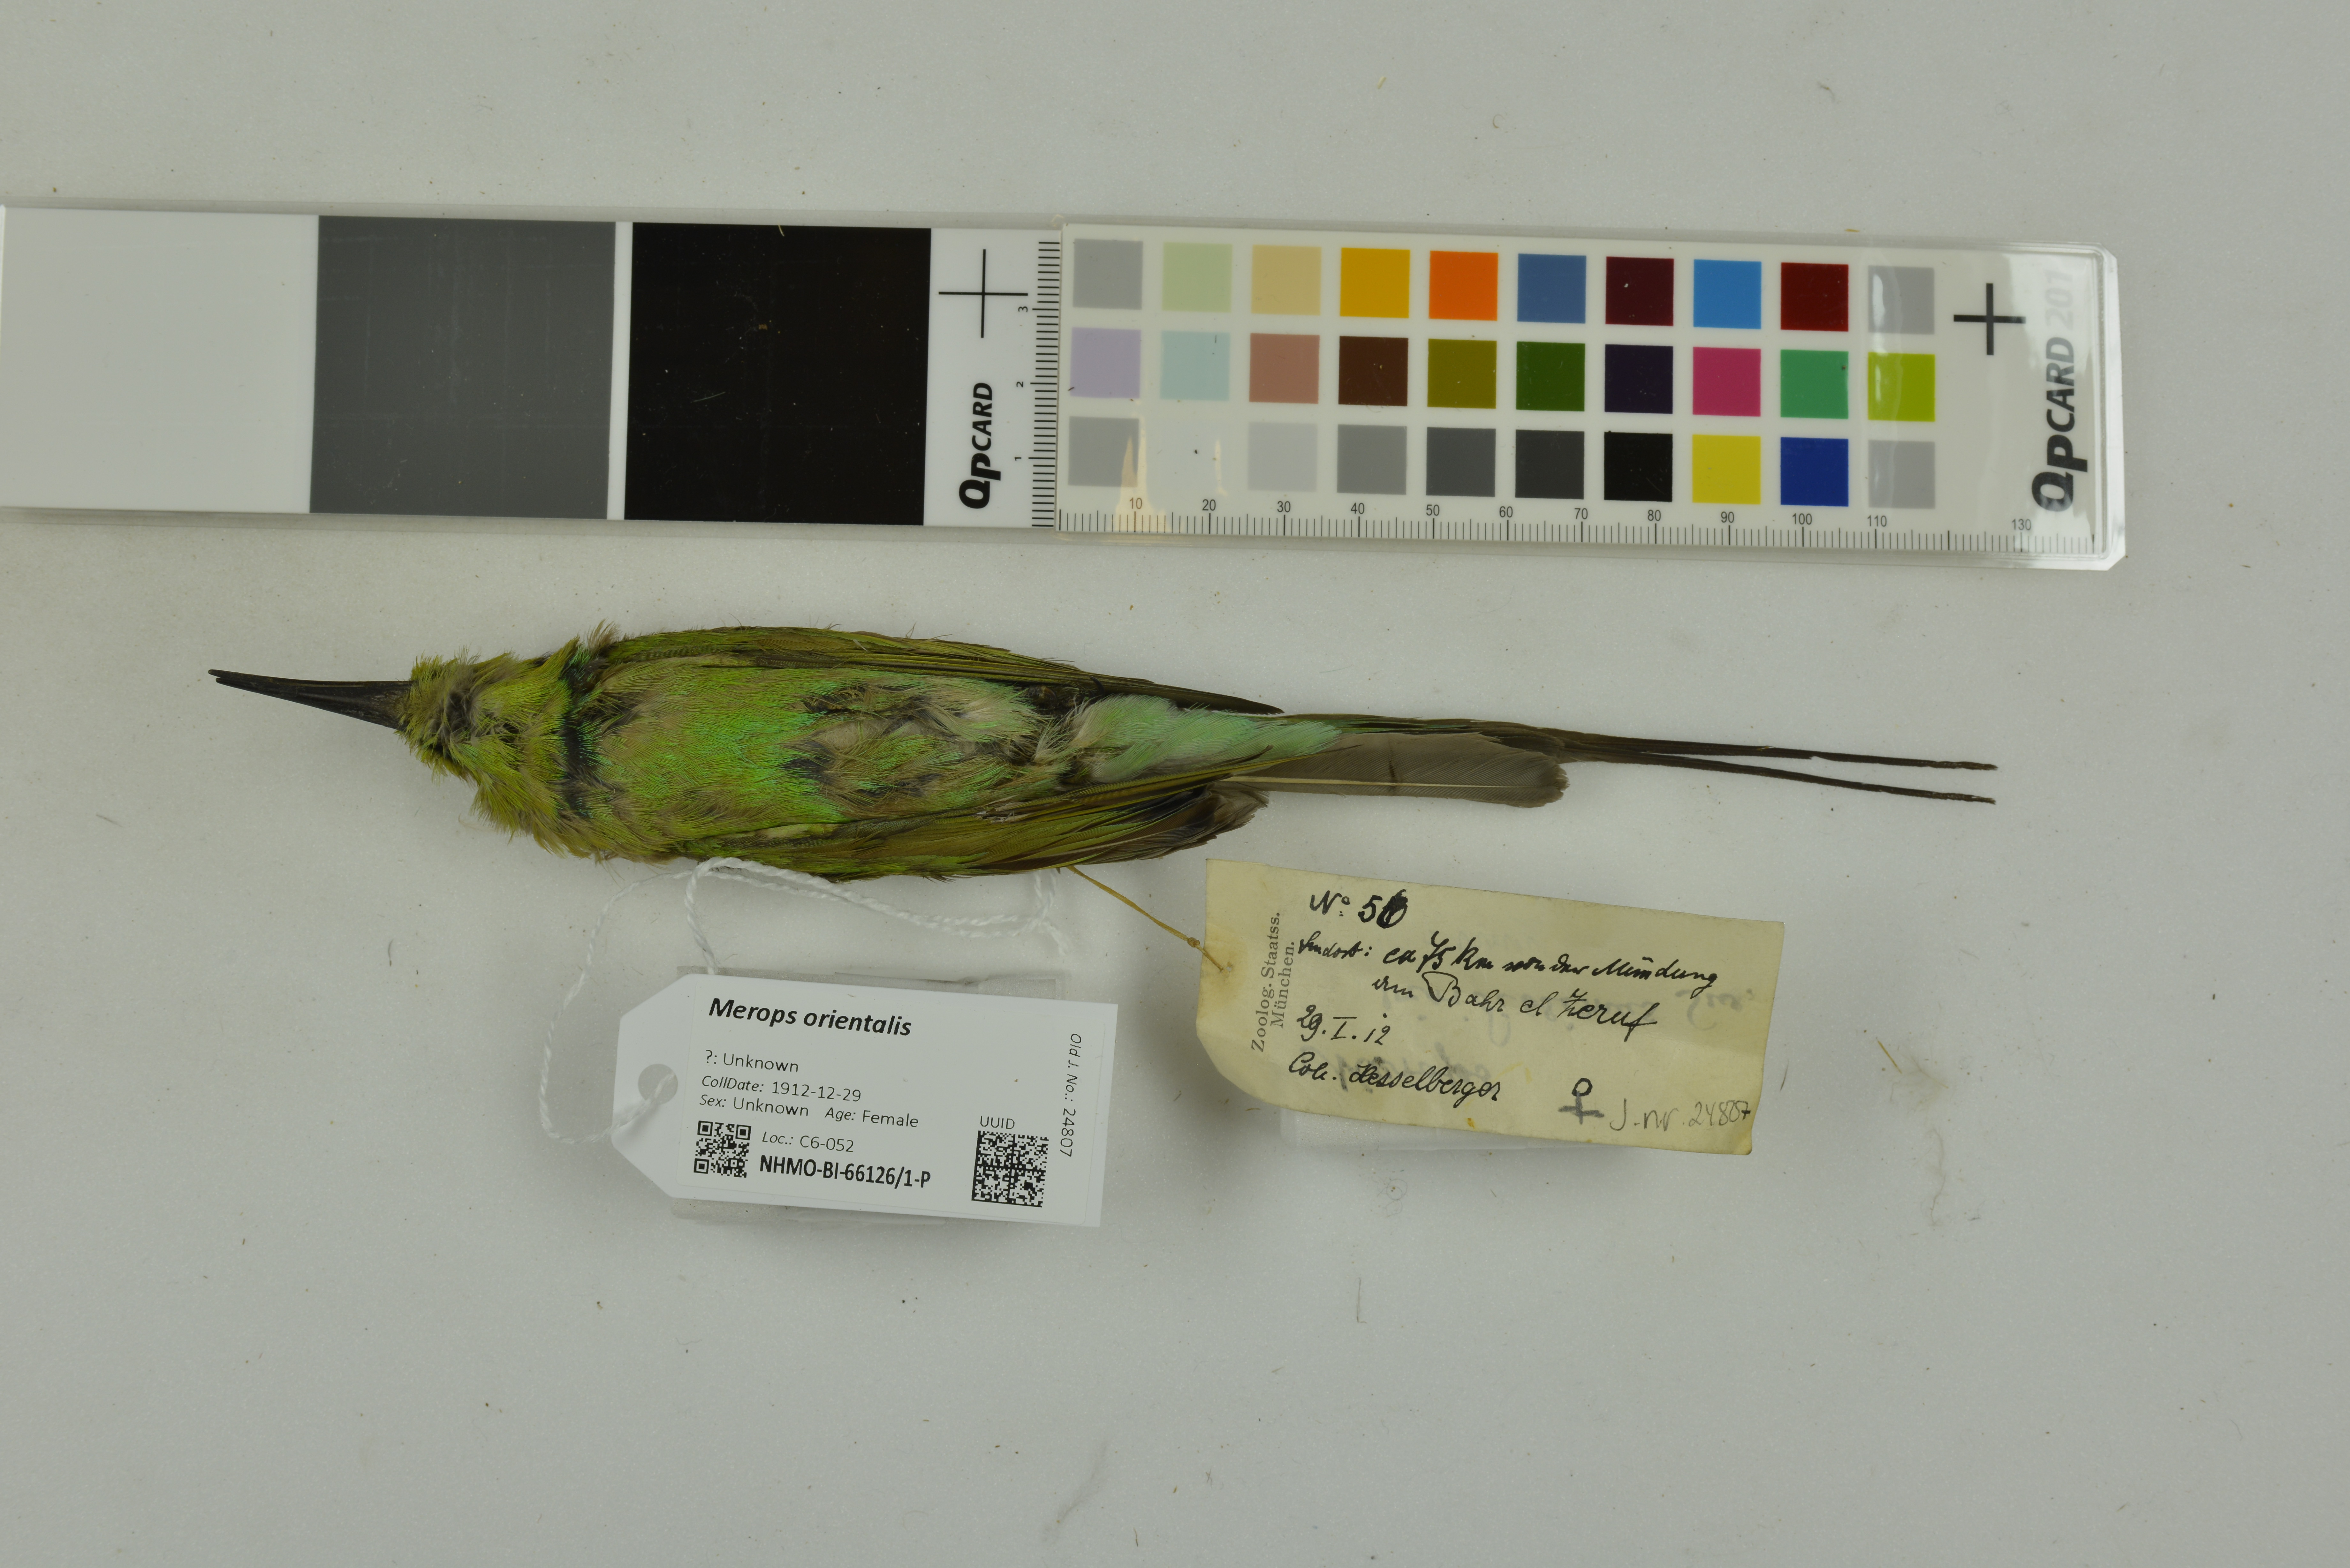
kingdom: Animalia
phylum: Chordata
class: Aves
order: Coraciiformes
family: Meropidae
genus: Merops
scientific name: Merops orientalis
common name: Green bee-eater
